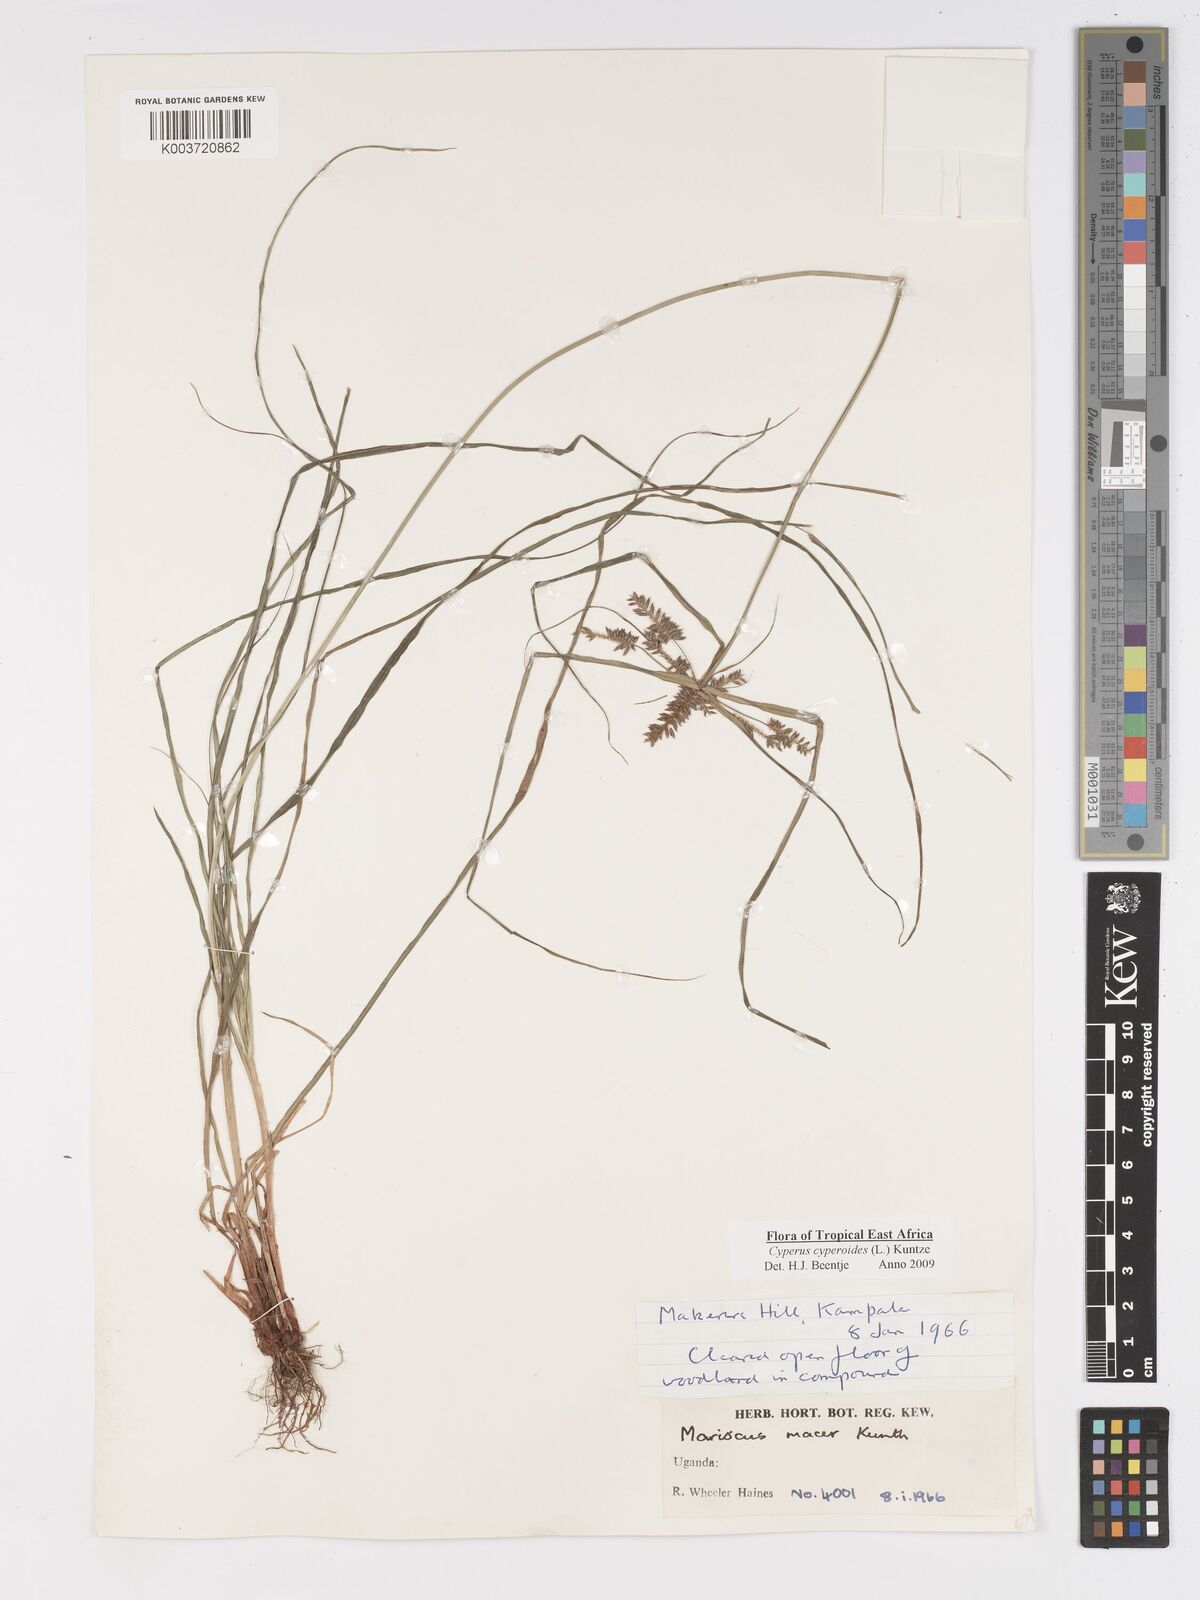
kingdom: Plantae
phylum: Tracheophyta
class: Liliopsida
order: Poales
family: Cyperaceae
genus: Cyperus
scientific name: Cyperus macrocarpus
